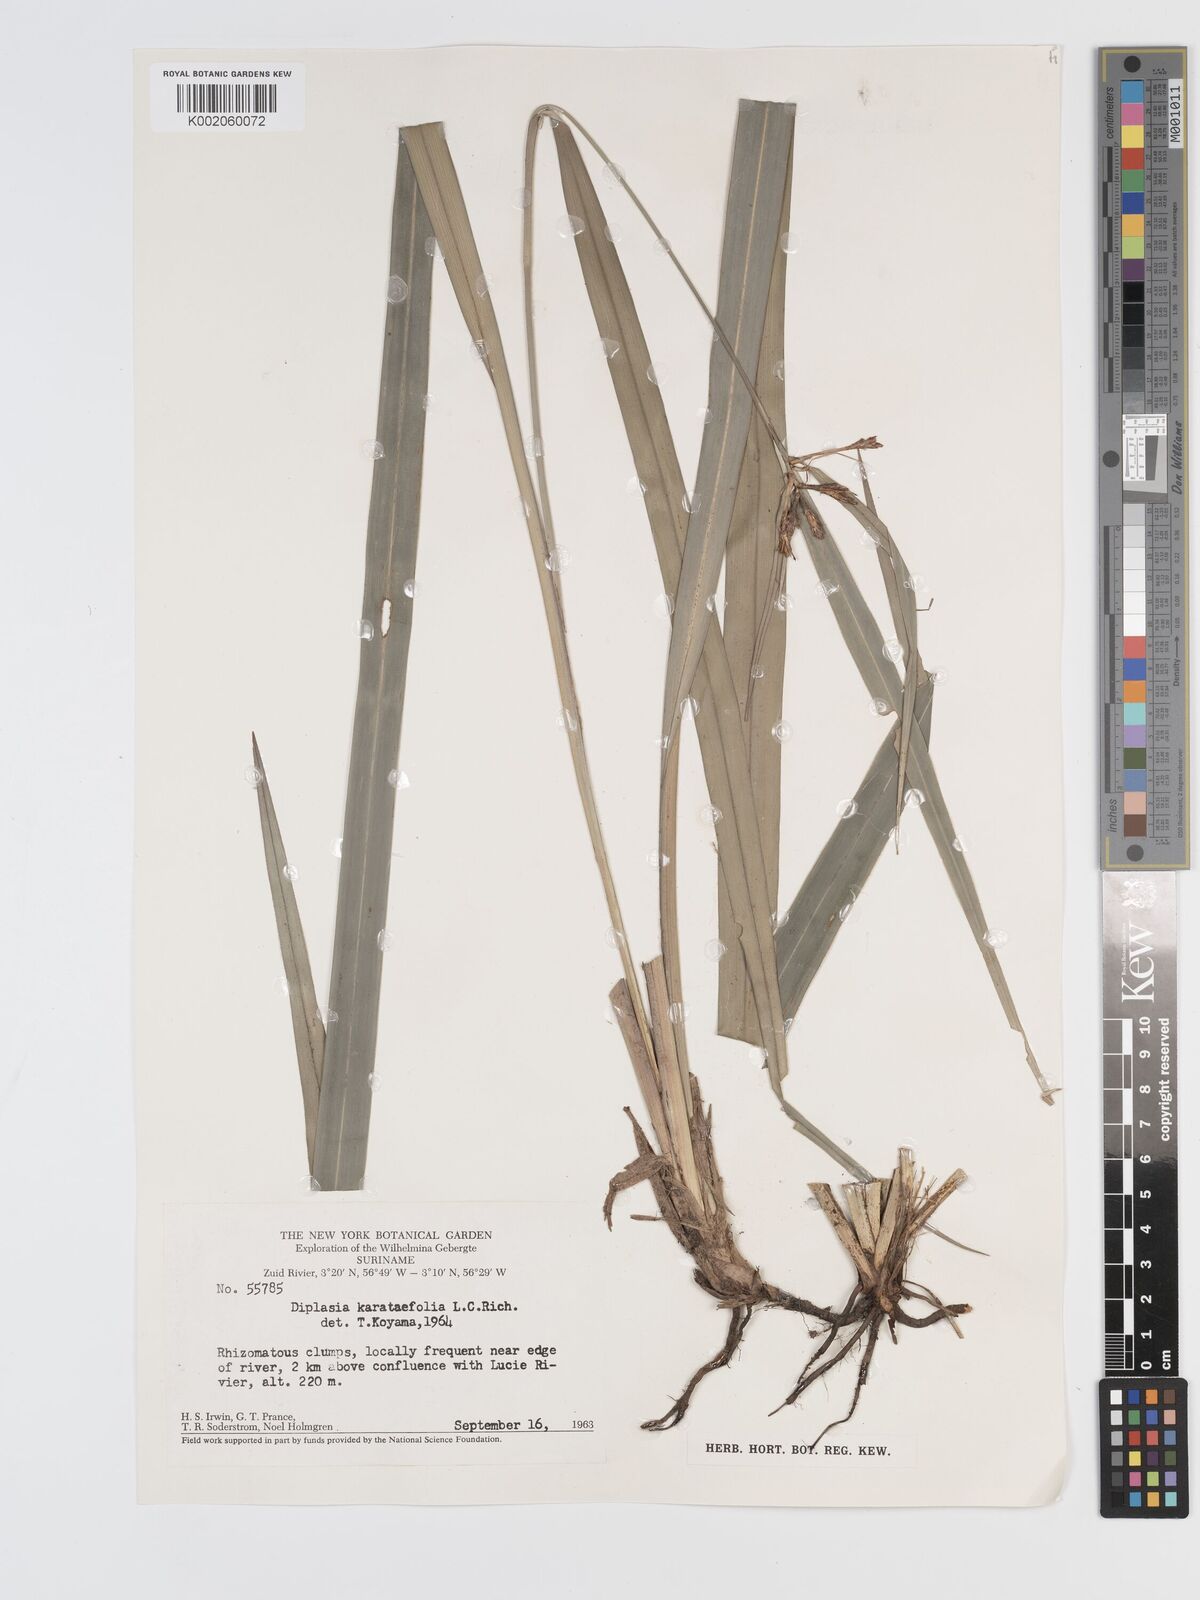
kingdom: Plantae
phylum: Tracheophyta
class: Liliopsida
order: Poales
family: Cyperaceae
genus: Diplasia
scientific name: Diplasia karatifolia
